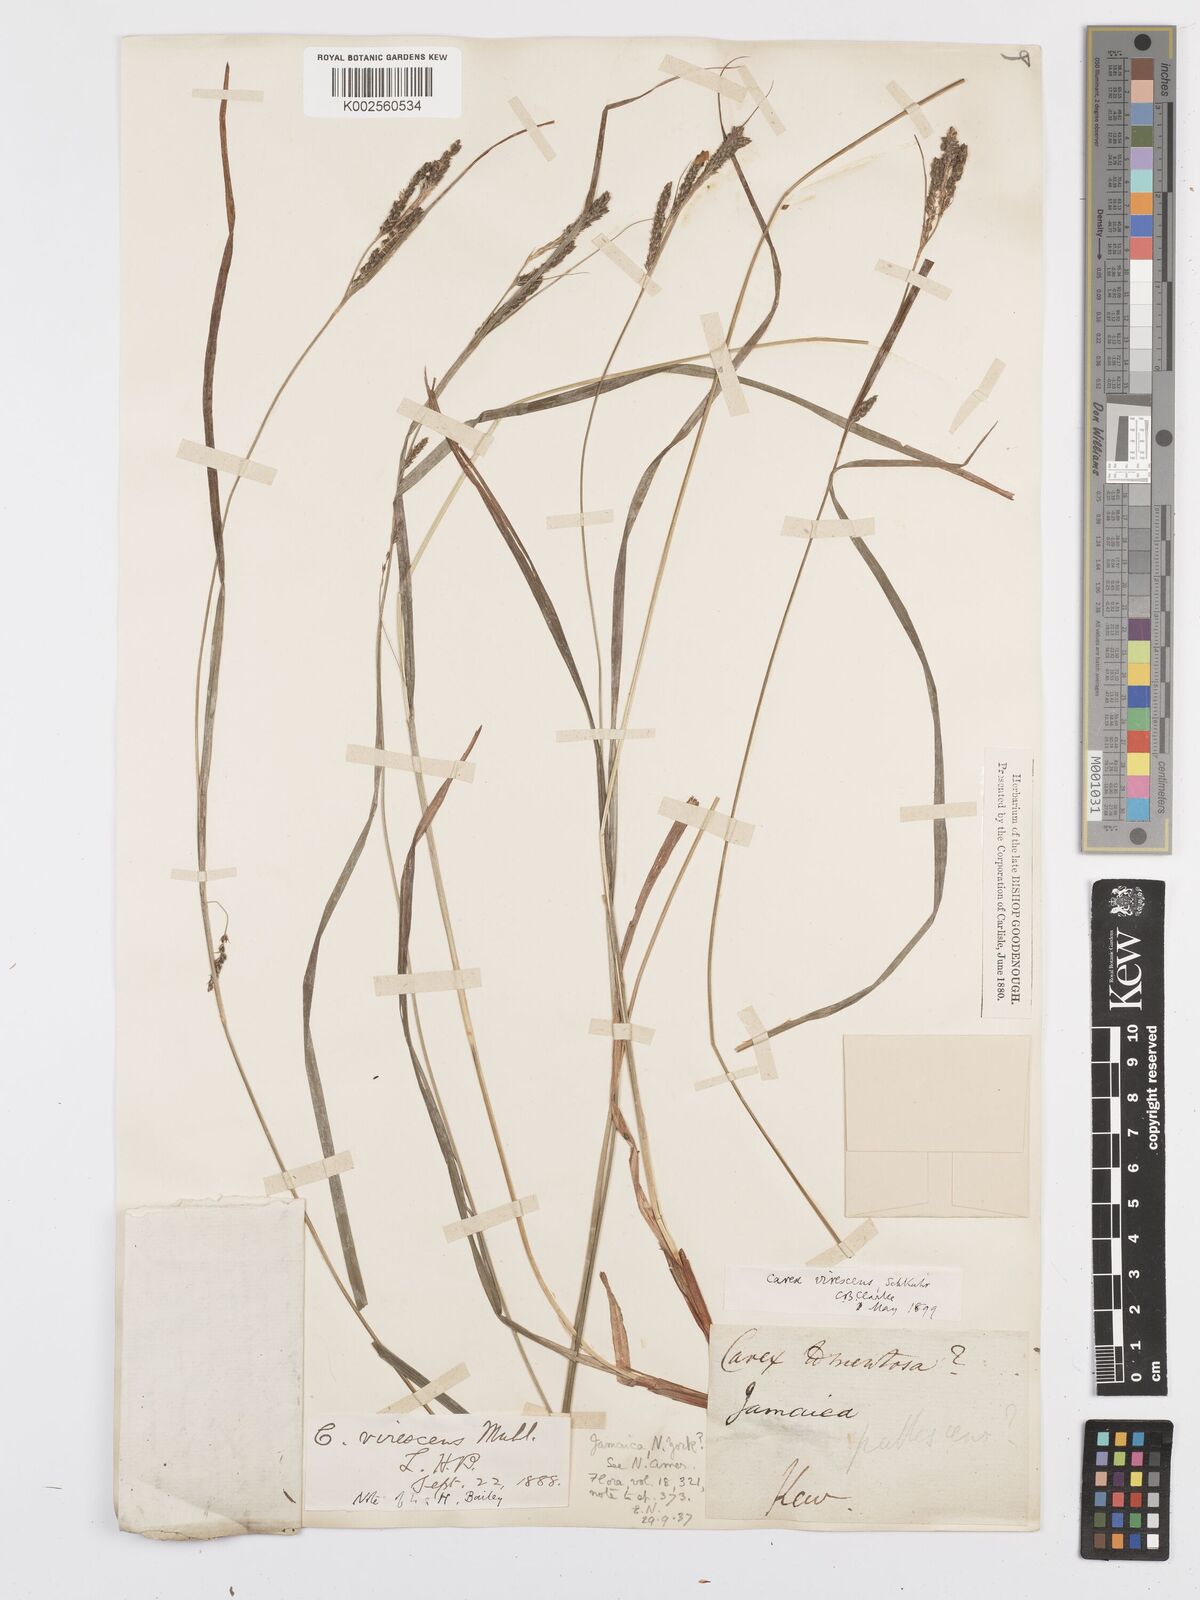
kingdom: Plantae
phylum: Tracheophyta
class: Liliopsida
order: Poales
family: Cyperaceae
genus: Carex
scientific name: Carex virescens
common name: Ribbed sedge
